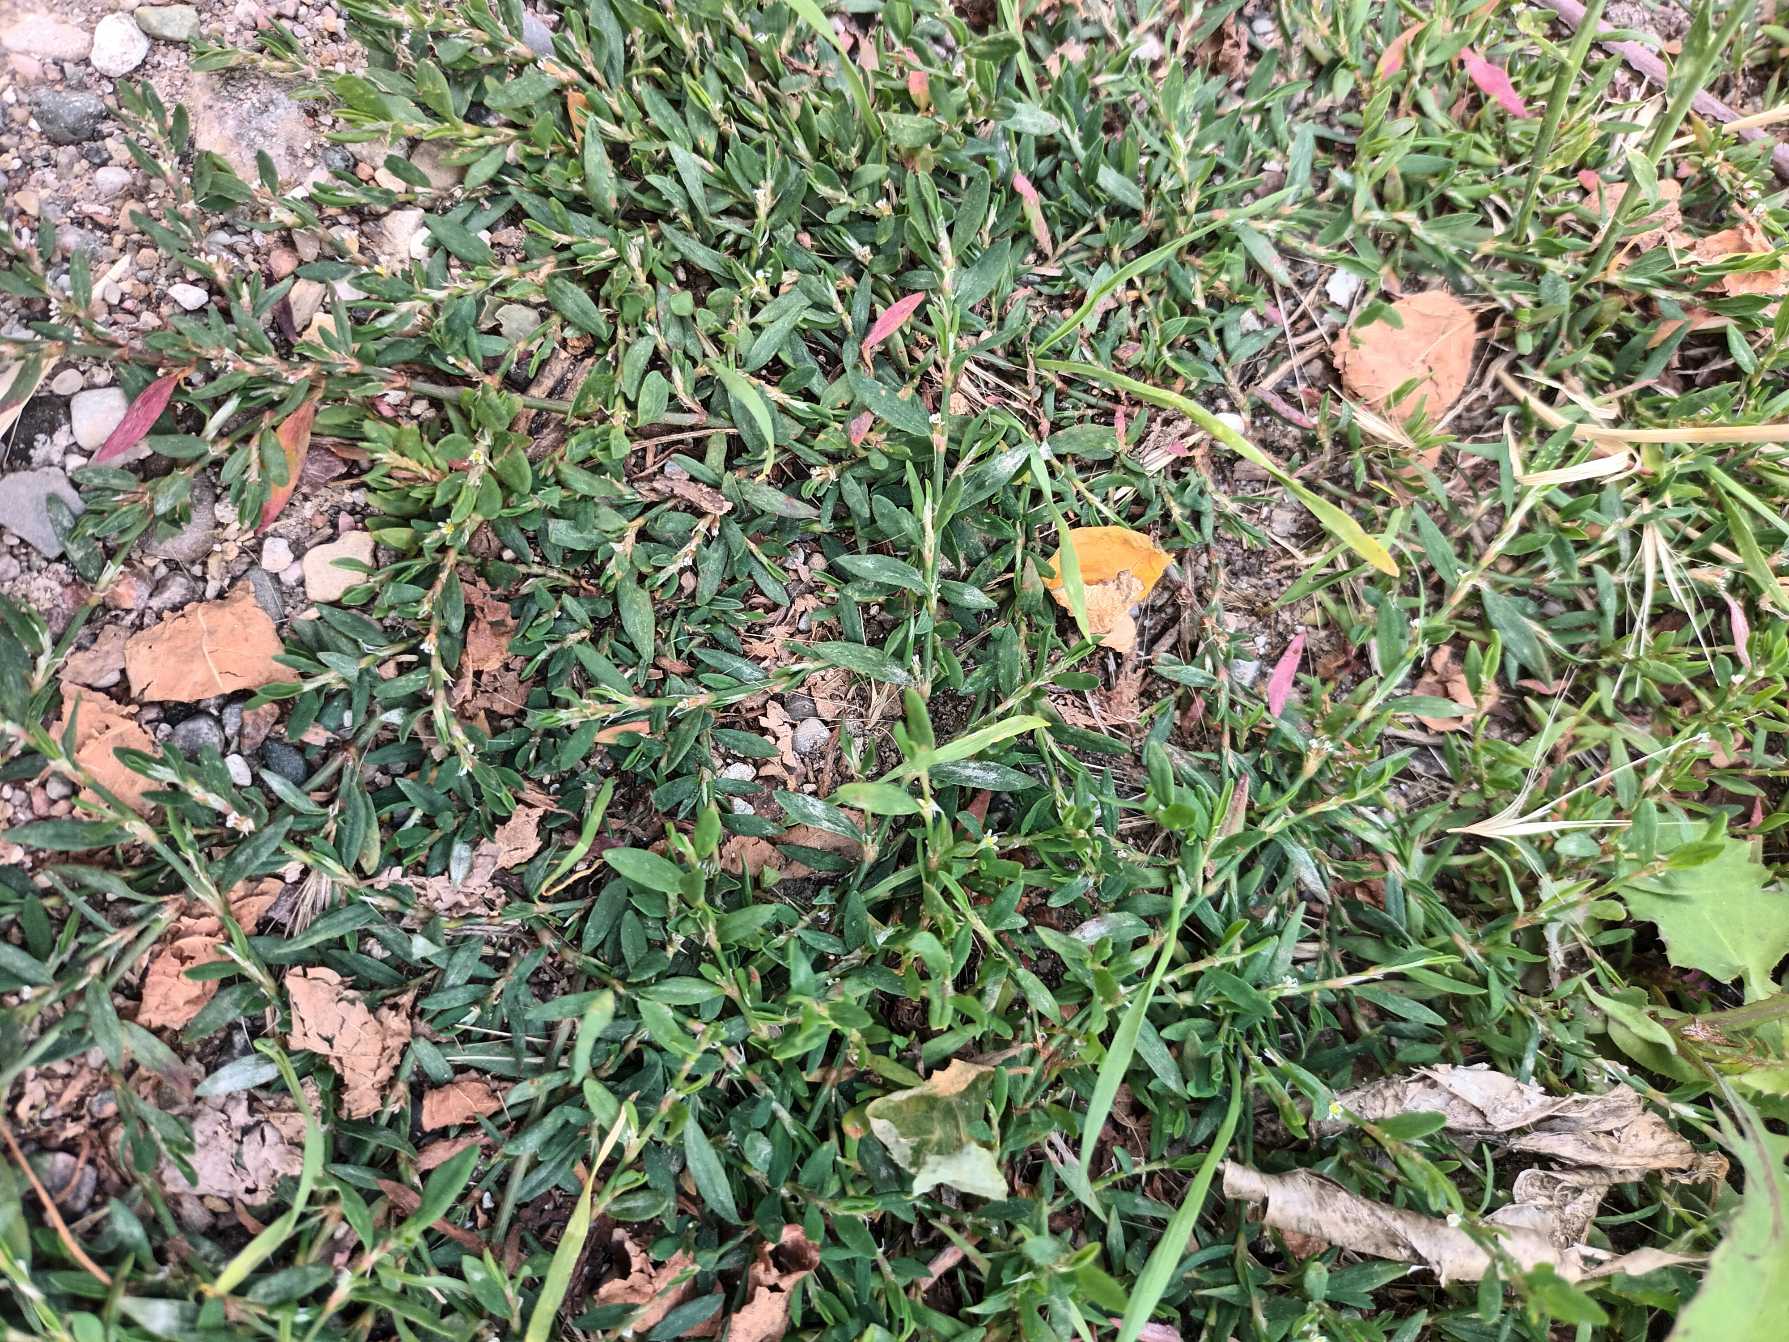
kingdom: Plantae
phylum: Tracheophyta
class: Magnoliopsida
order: Caryophyllales
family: Polygonaceae
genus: Polygonum
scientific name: Polygonum arenastrum
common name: Liggende vej-pileurt
